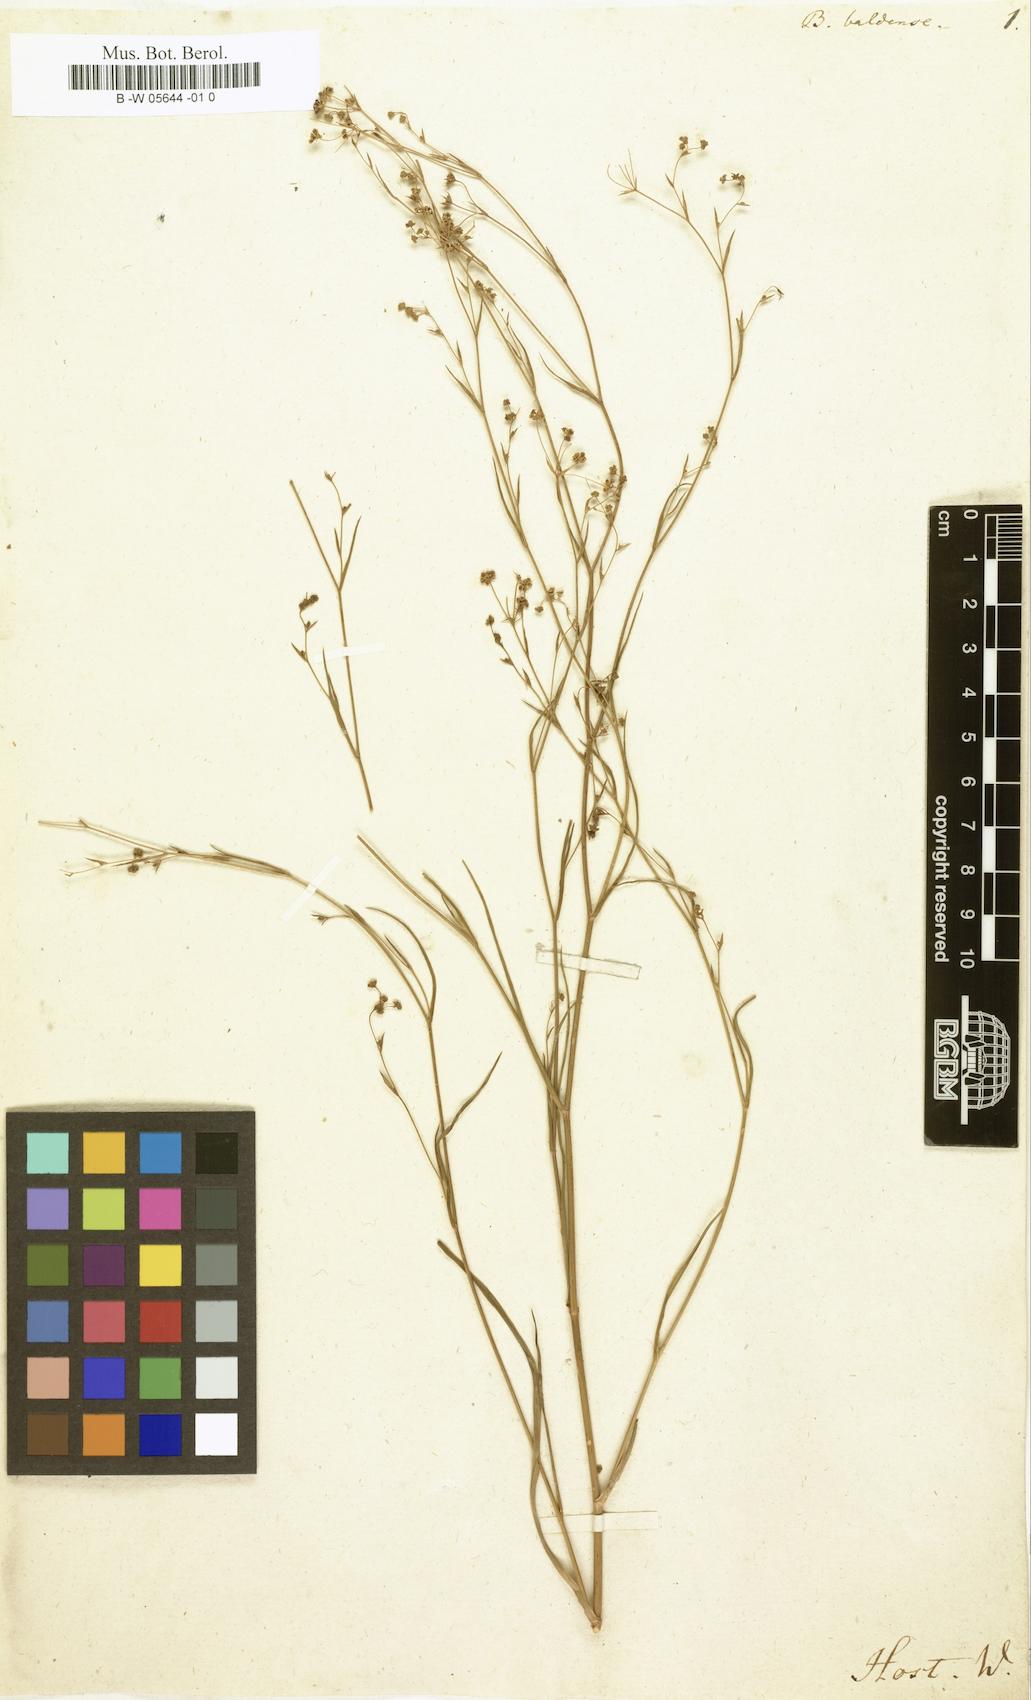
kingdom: Plantae
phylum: Tracheophyta
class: Magnoliopsida
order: Apiales
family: Apiaceae
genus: Bupleurum
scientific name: Bupleurum ranunculoides
